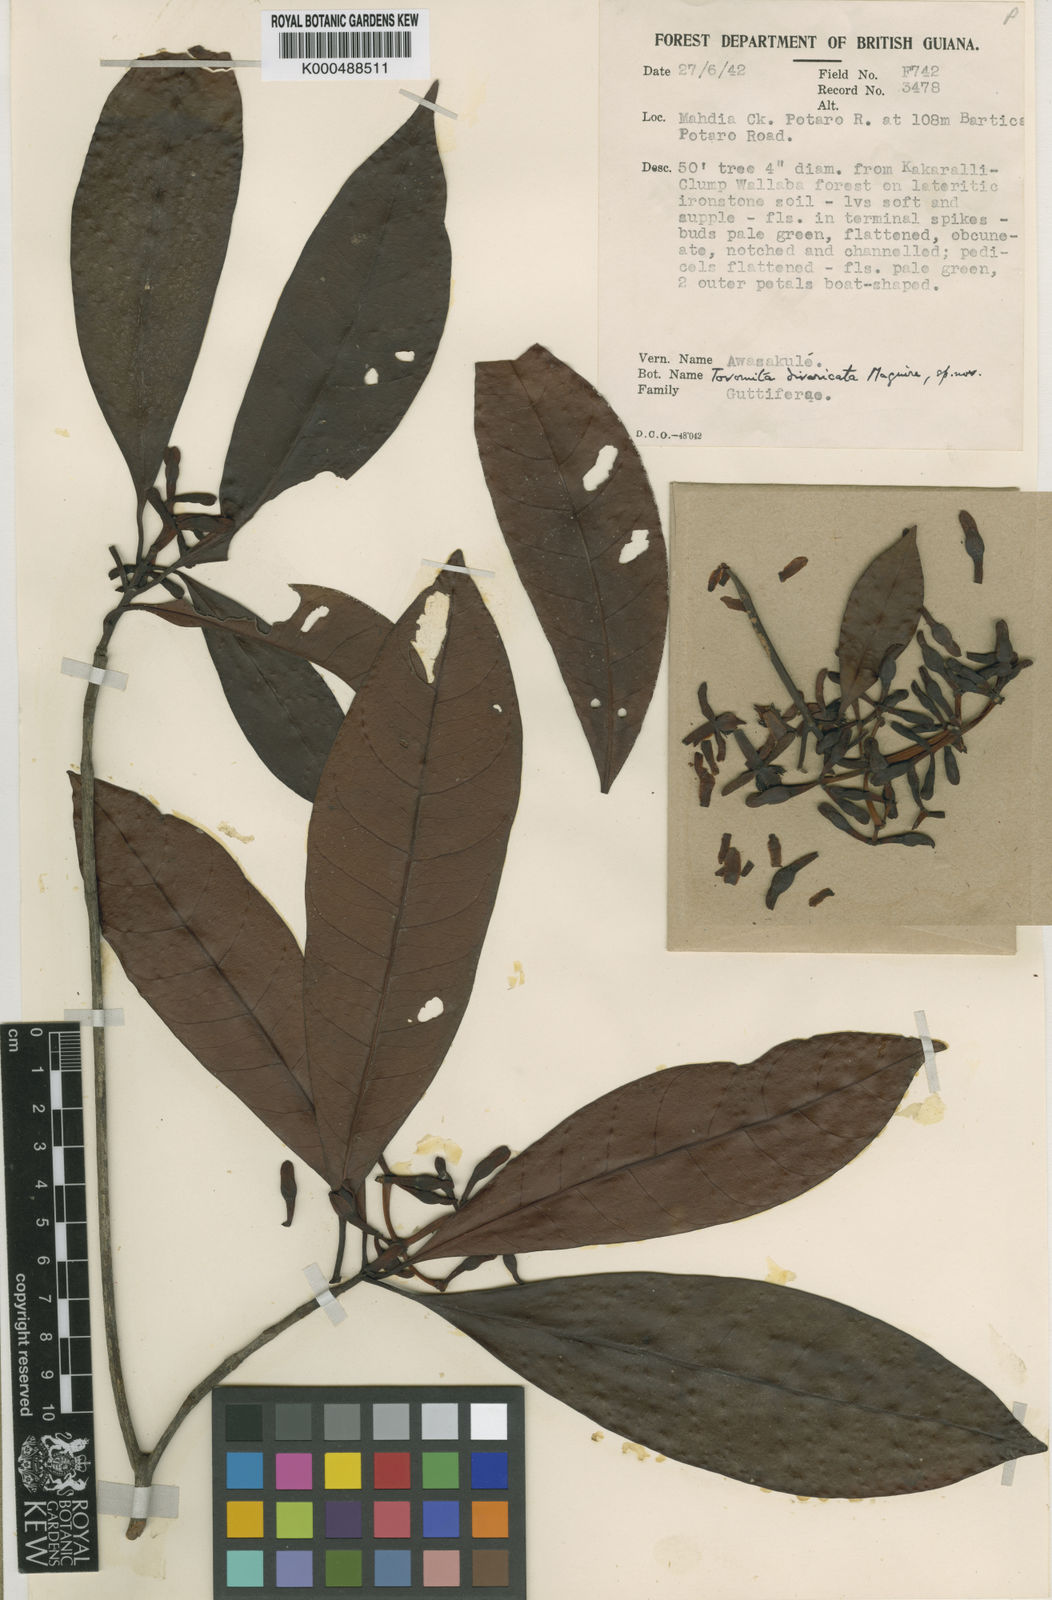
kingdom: Plantae
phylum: Tracheophyta
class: Magnoliopsida
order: Malpighiales
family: Clusiaceae
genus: Tovomita
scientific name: Tovomita divaricata
